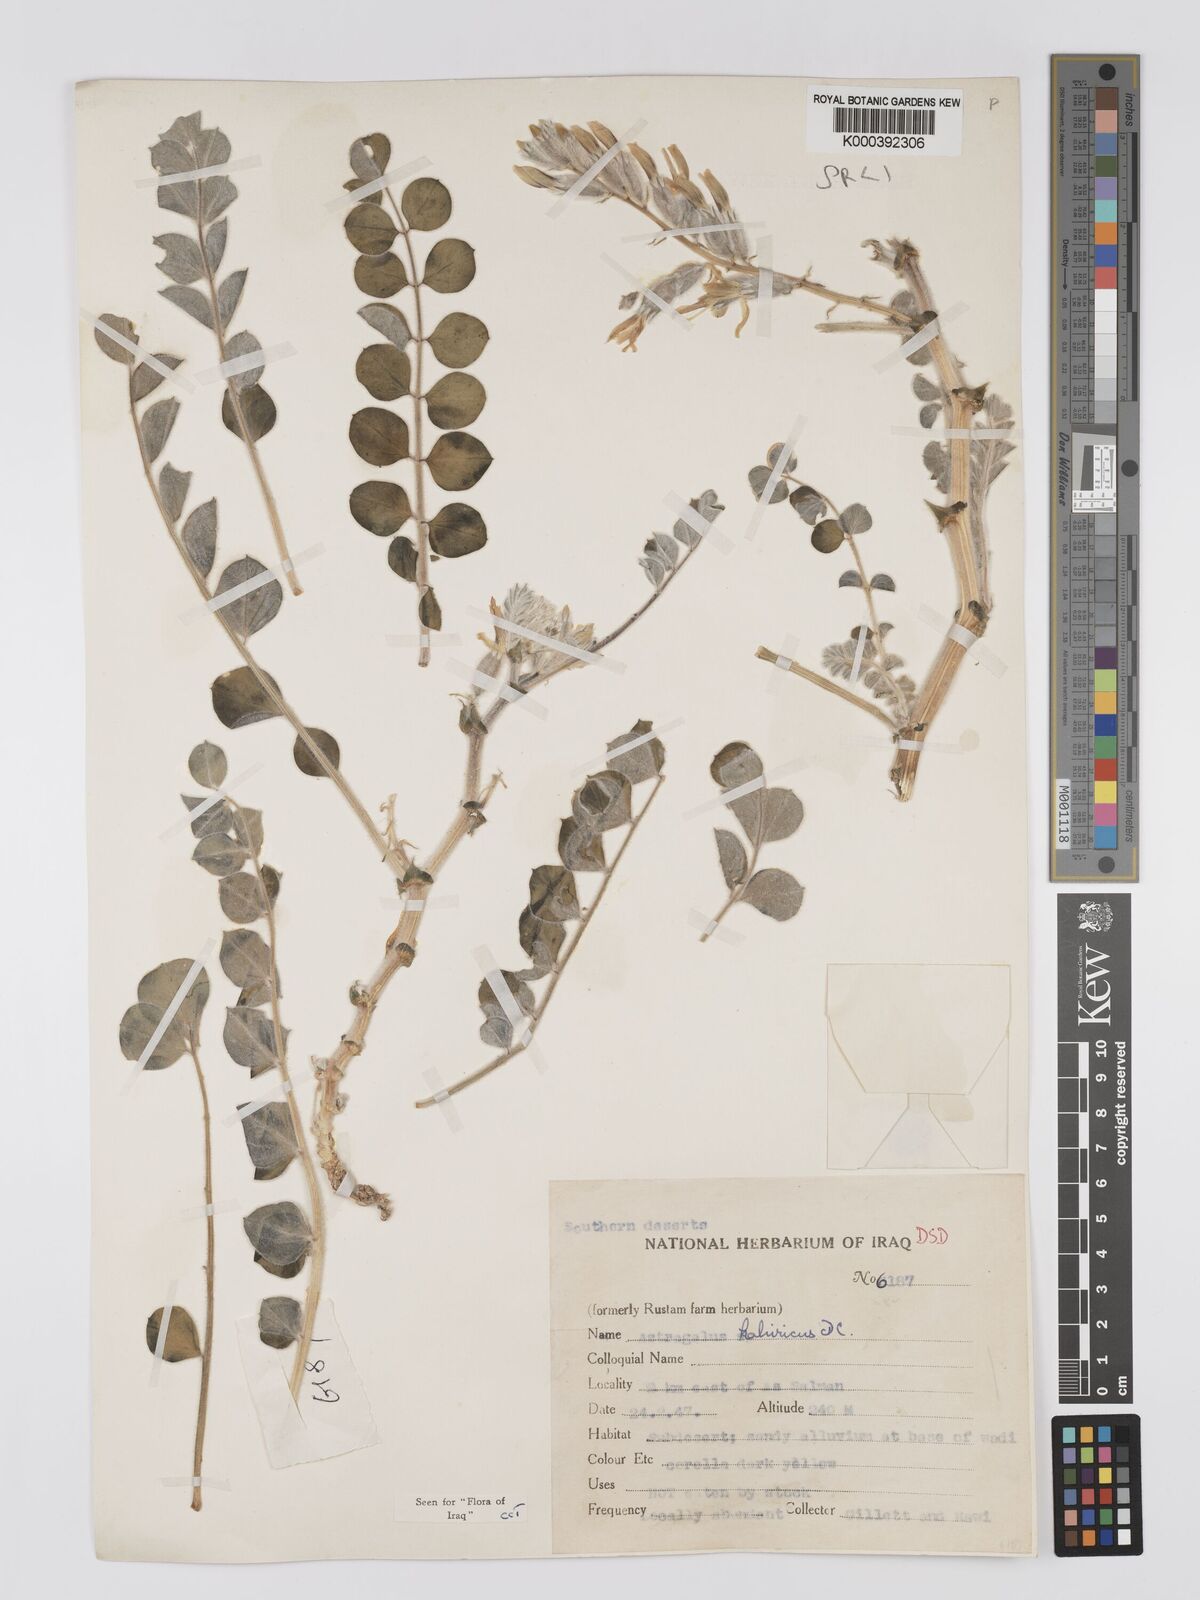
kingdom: Plantae
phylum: Tracheophyta
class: Magnoliopsida
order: Fabales
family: Fabaceae
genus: Astragalus
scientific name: Astragalus kahiricus
